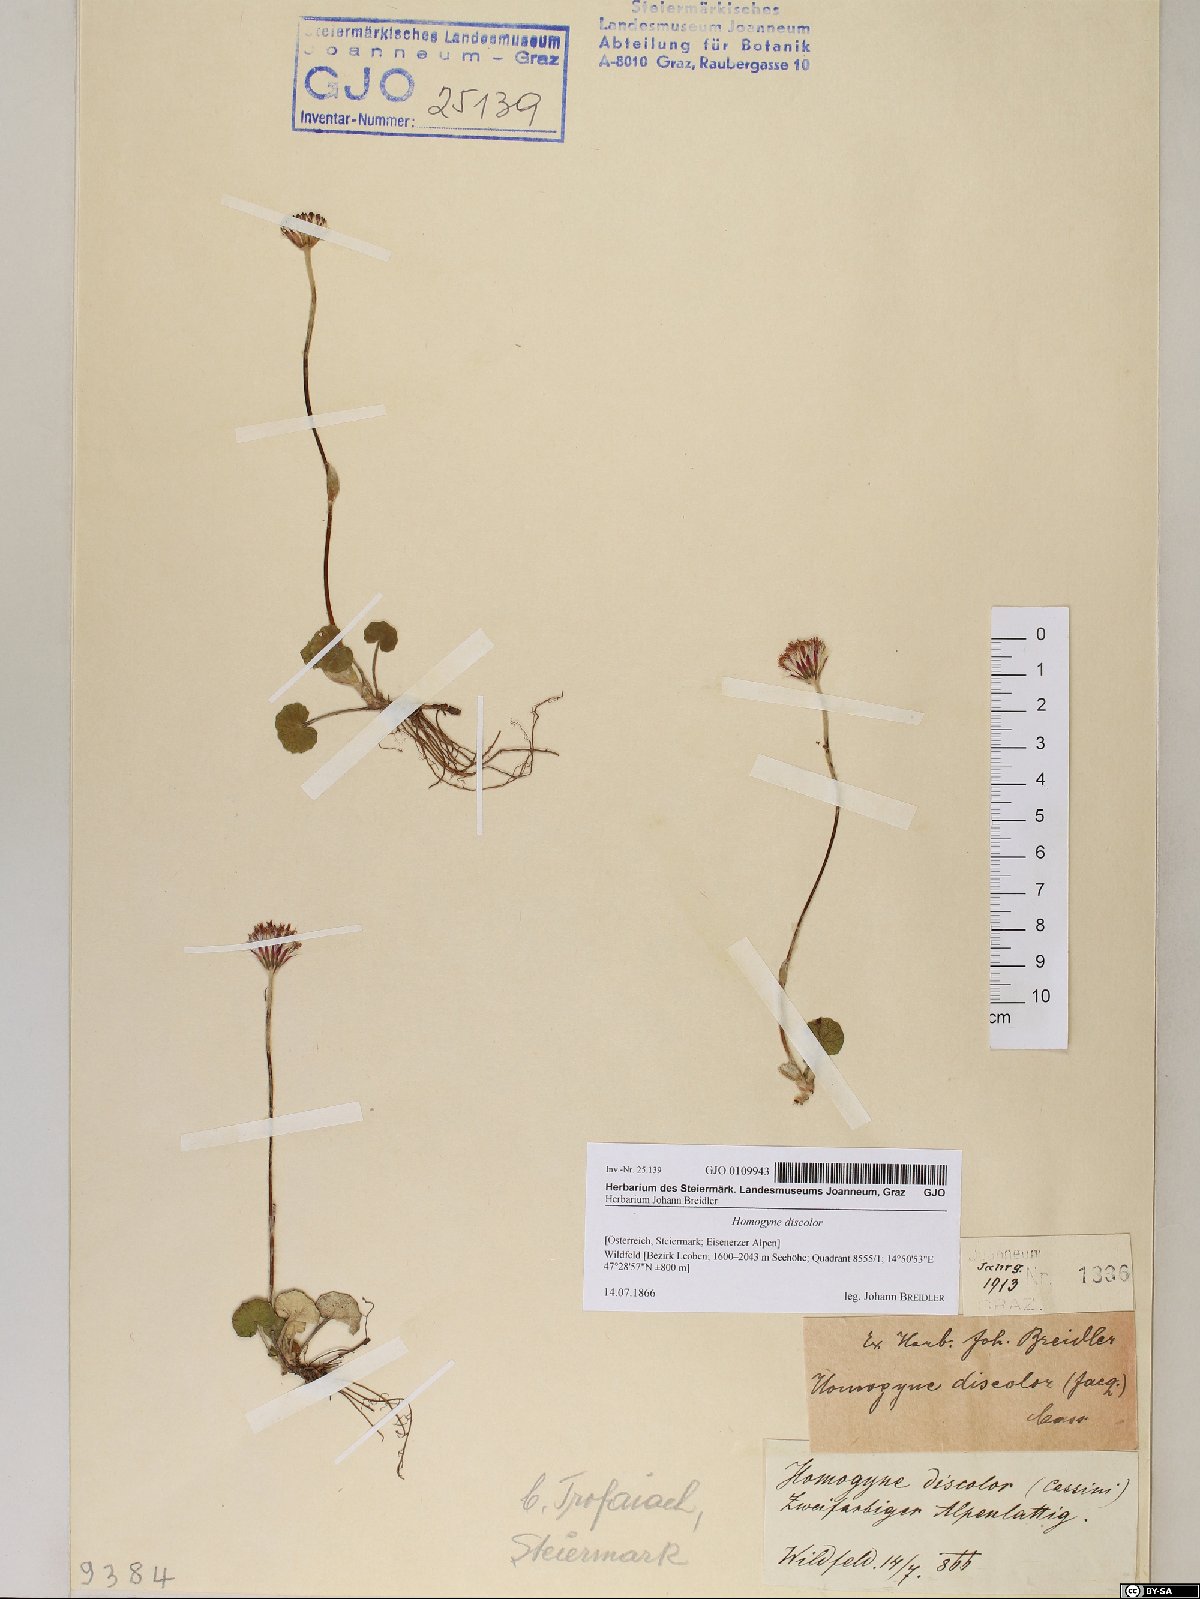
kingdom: Plantae
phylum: Tracheophyta
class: Magnoliopsida
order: Asterales
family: Asteraceae
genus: Homogyne
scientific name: Homogyne discolor
